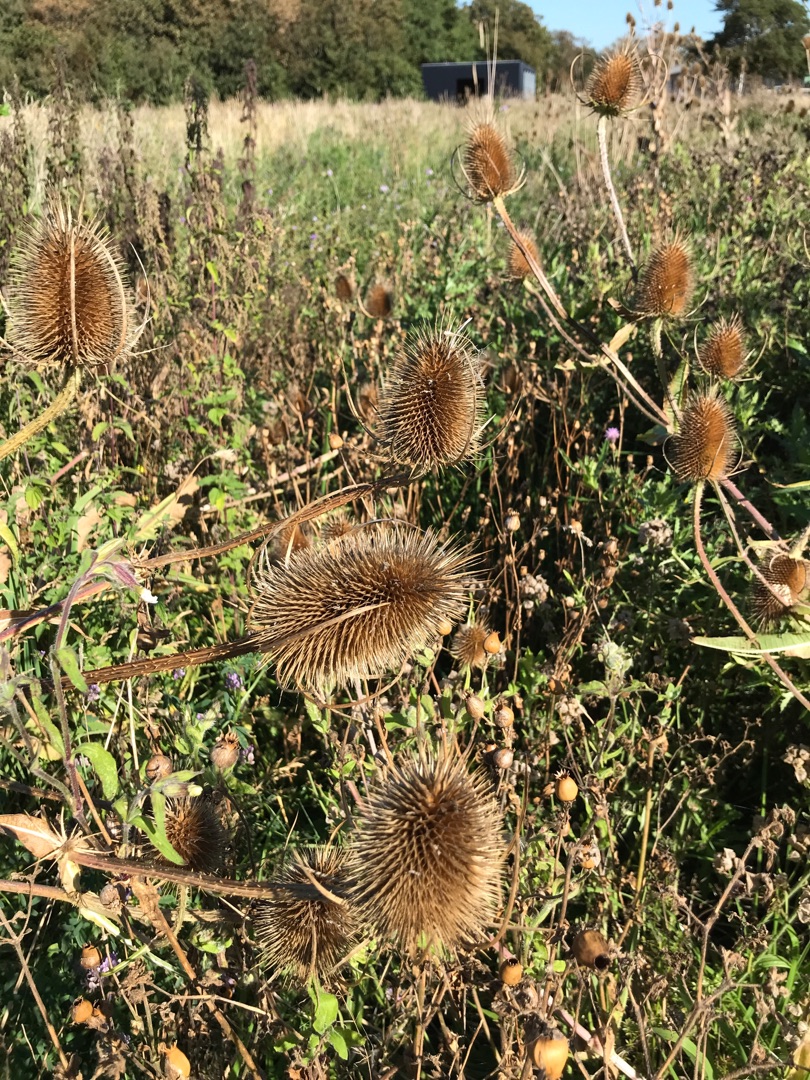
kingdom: Plantae
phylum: Tracheophyta
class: Magnoliopsida
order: Dipsacales
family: Caprifoliaceae
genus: Dipsacus
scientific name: Dipsacus fullonum
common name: Gærde-kartebolle
